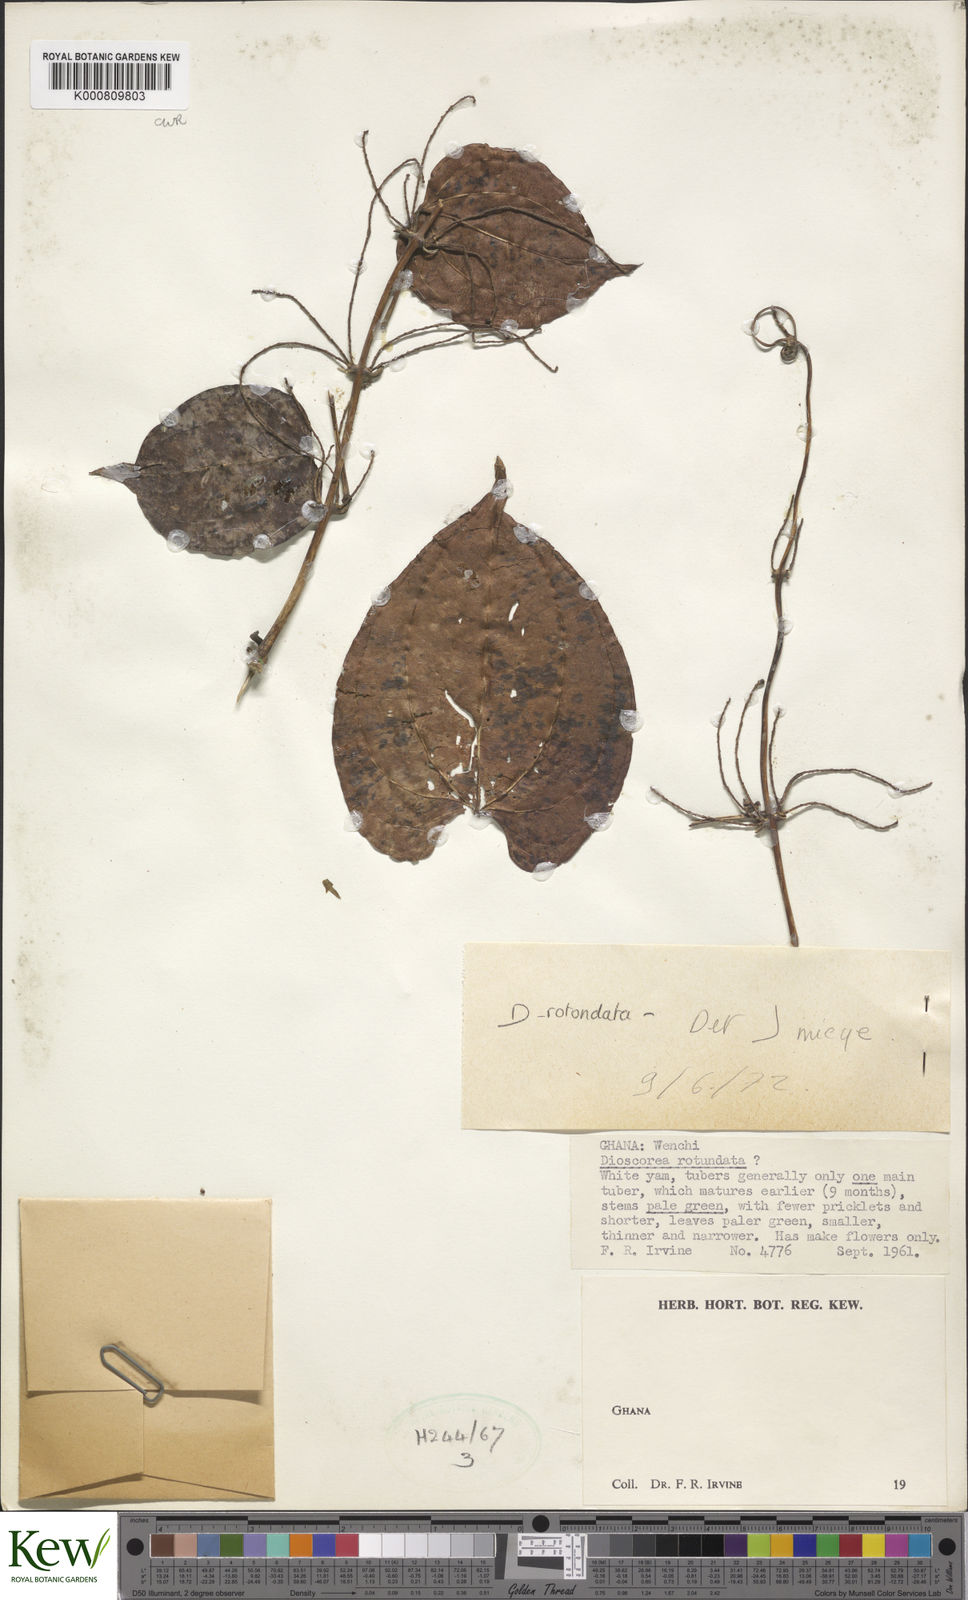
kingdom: Plantae
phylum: Tracheophyta
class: Liliopsida
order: Dioscoreales
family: Dioscoreaceae
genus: Dioscorea
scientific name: Dioscorea cayenensis
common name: Attoto yam
